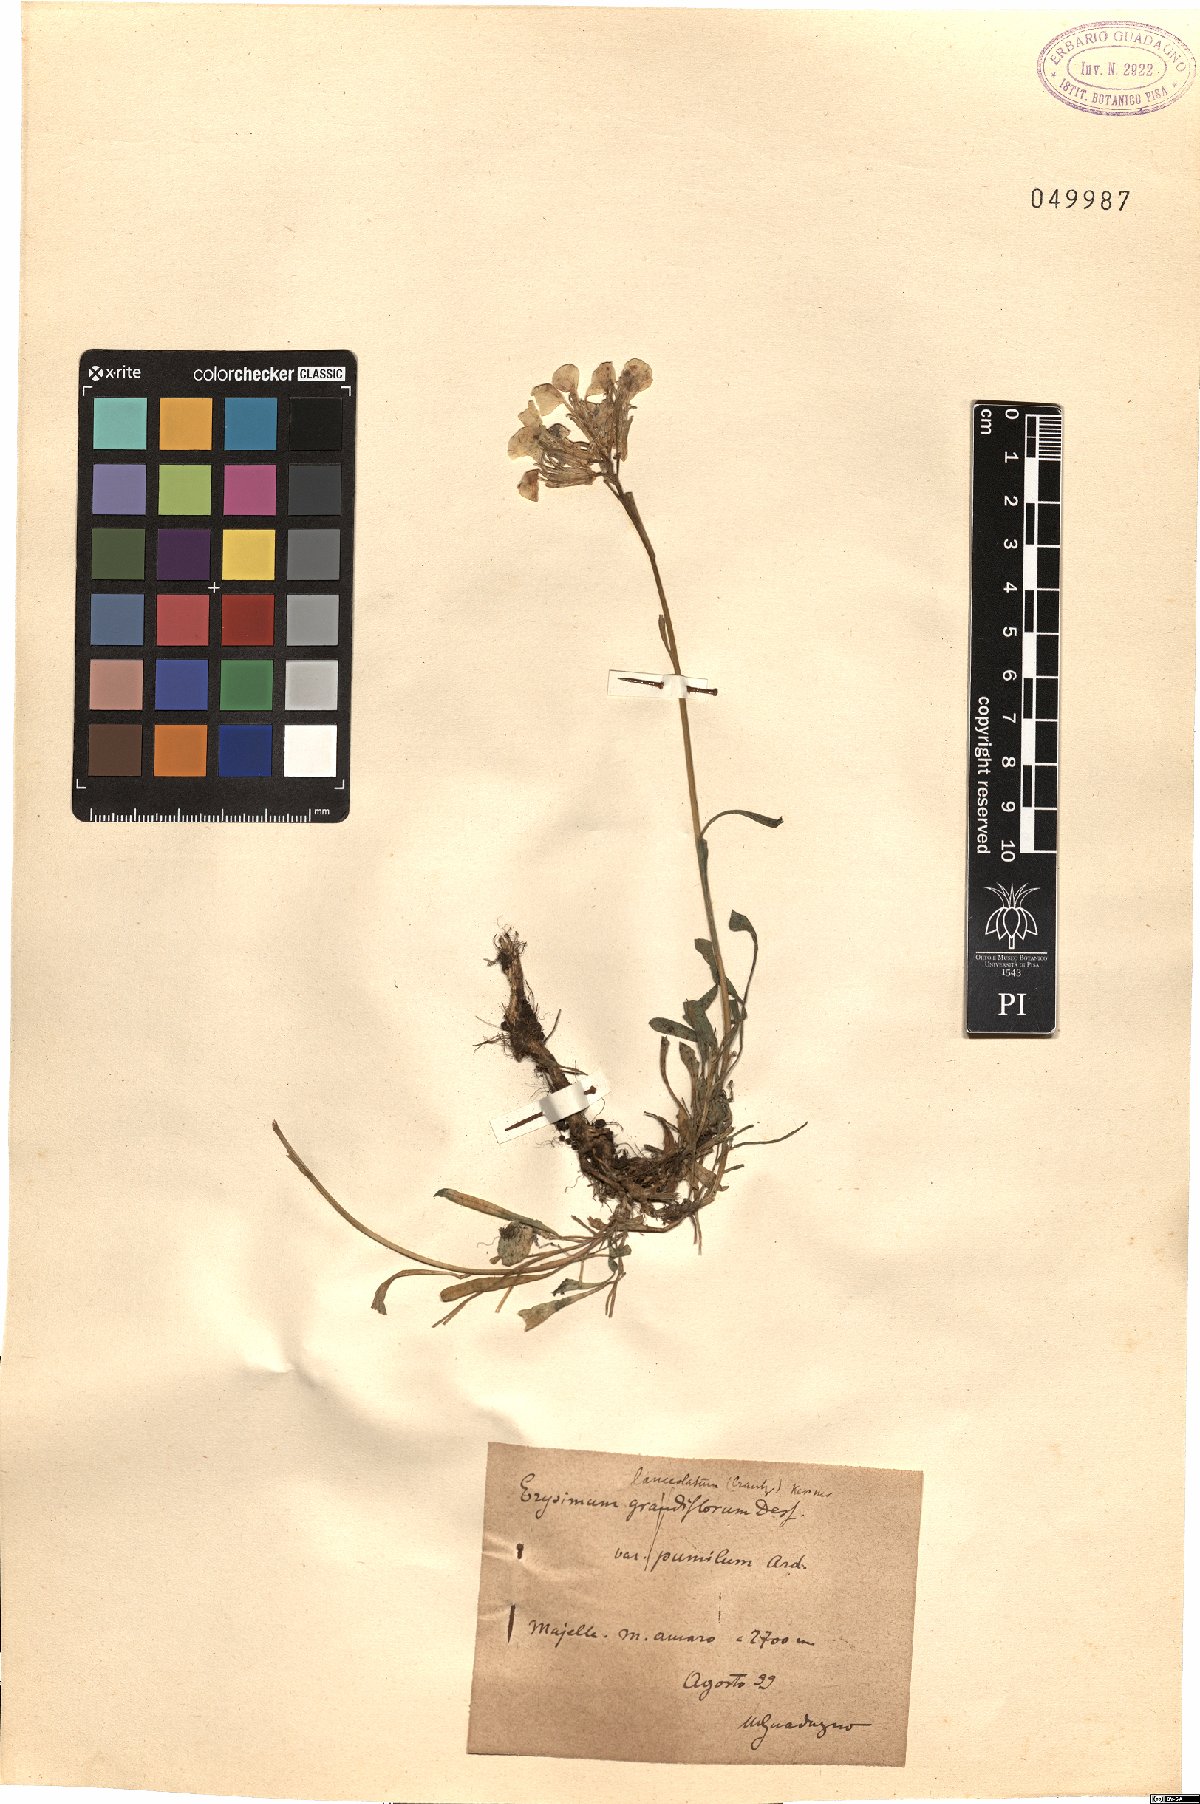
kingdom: Plantae
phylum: Tracheophyta
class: Magnoliopsida
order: Brassicales
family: Brassicaceae
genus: Erysimum
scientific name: Erysimum nevadense
